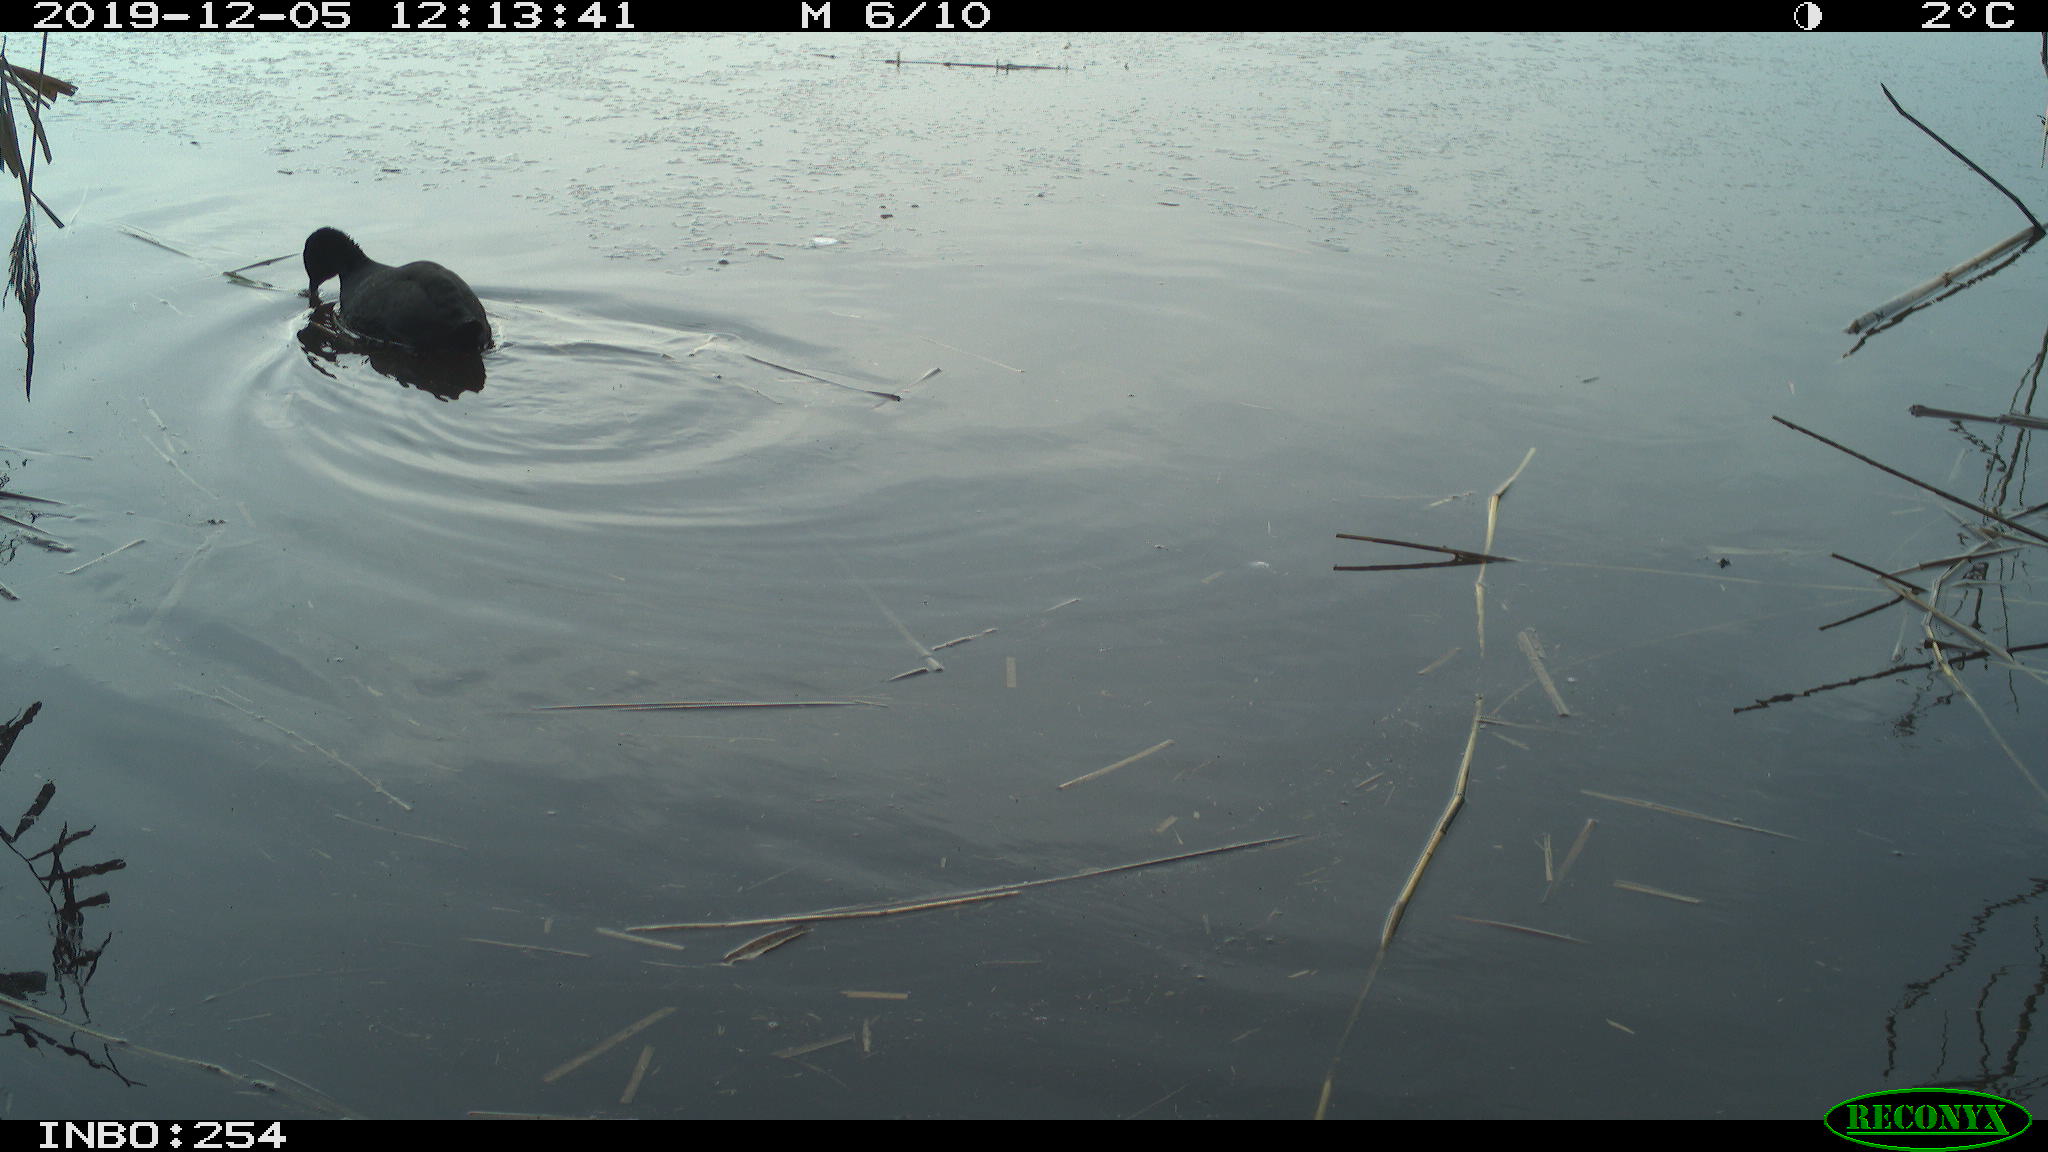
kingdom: Animalia
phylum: Chordata
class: Aves
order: Gruiformes
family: Rallidae
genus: Fulica
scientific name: Fulica atra
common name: Eurasian coot
